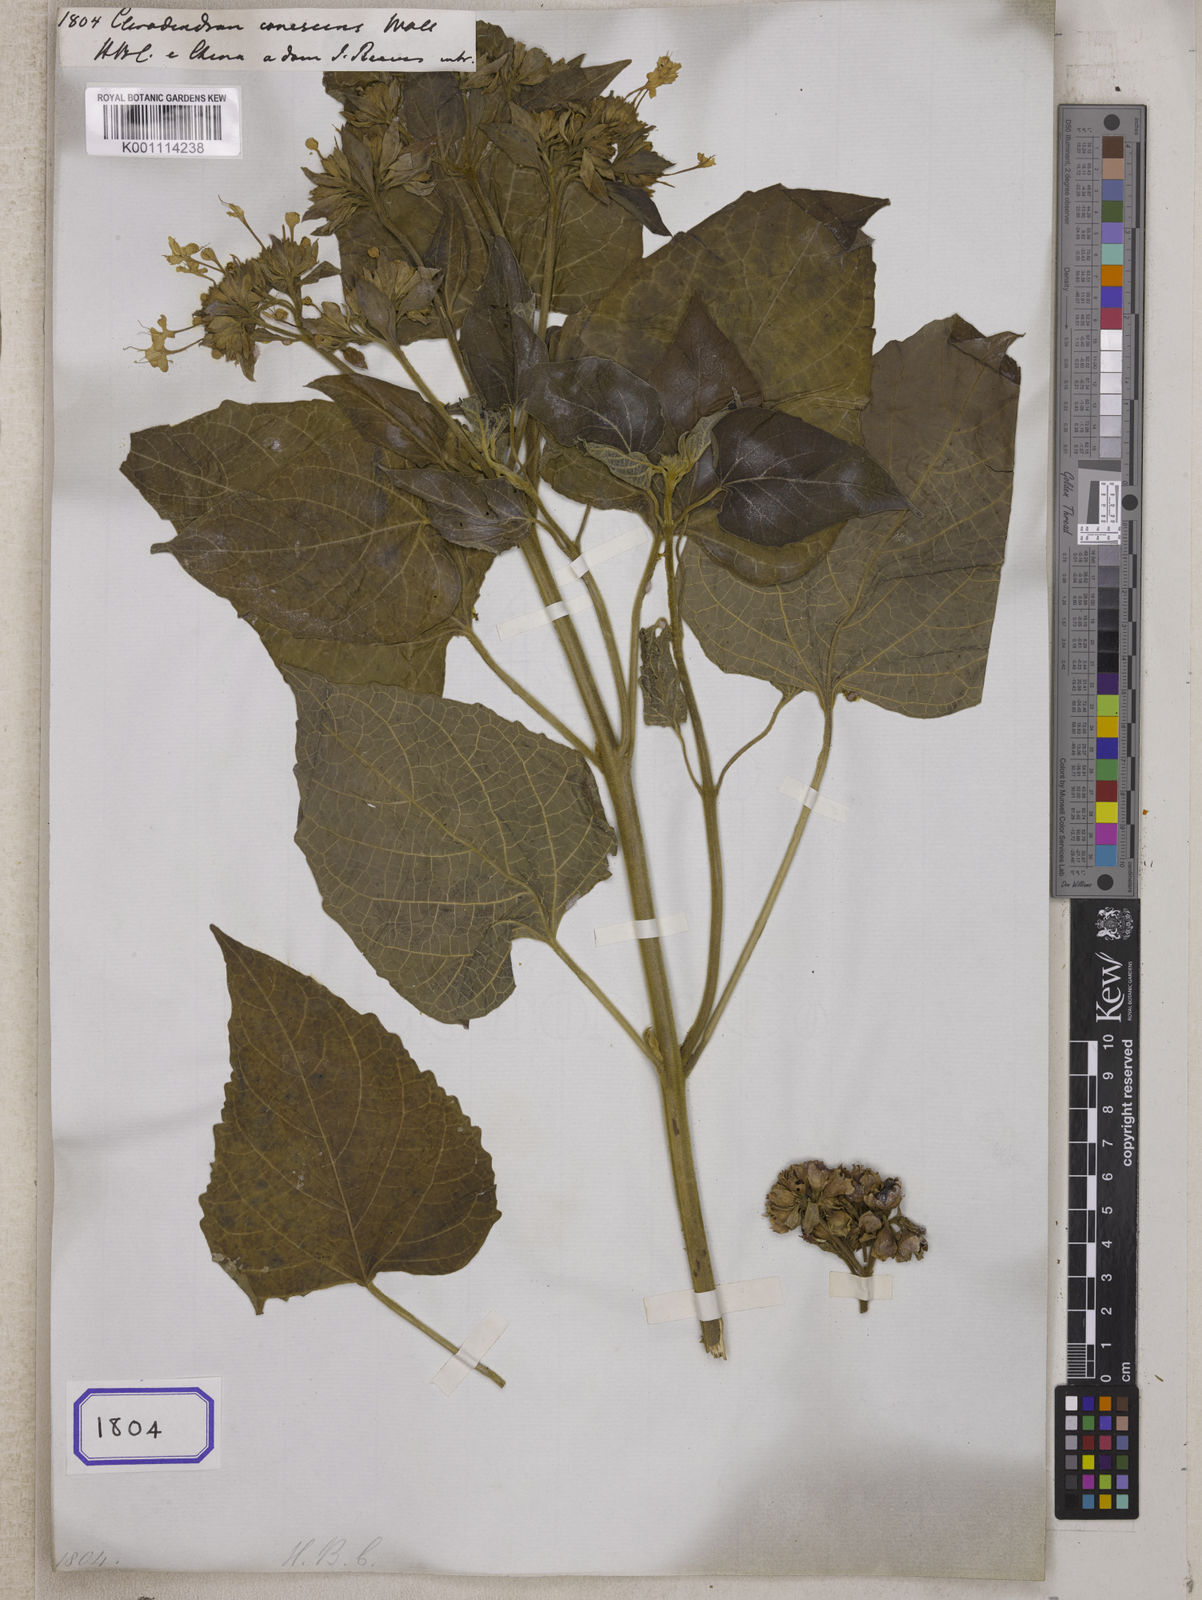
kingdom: Plantae
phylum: Tracheophyta
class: Magnoliopsida
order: Lamiales
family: Lamiaceae
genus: Clerodendrum
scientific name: Clerodendrum canescens
